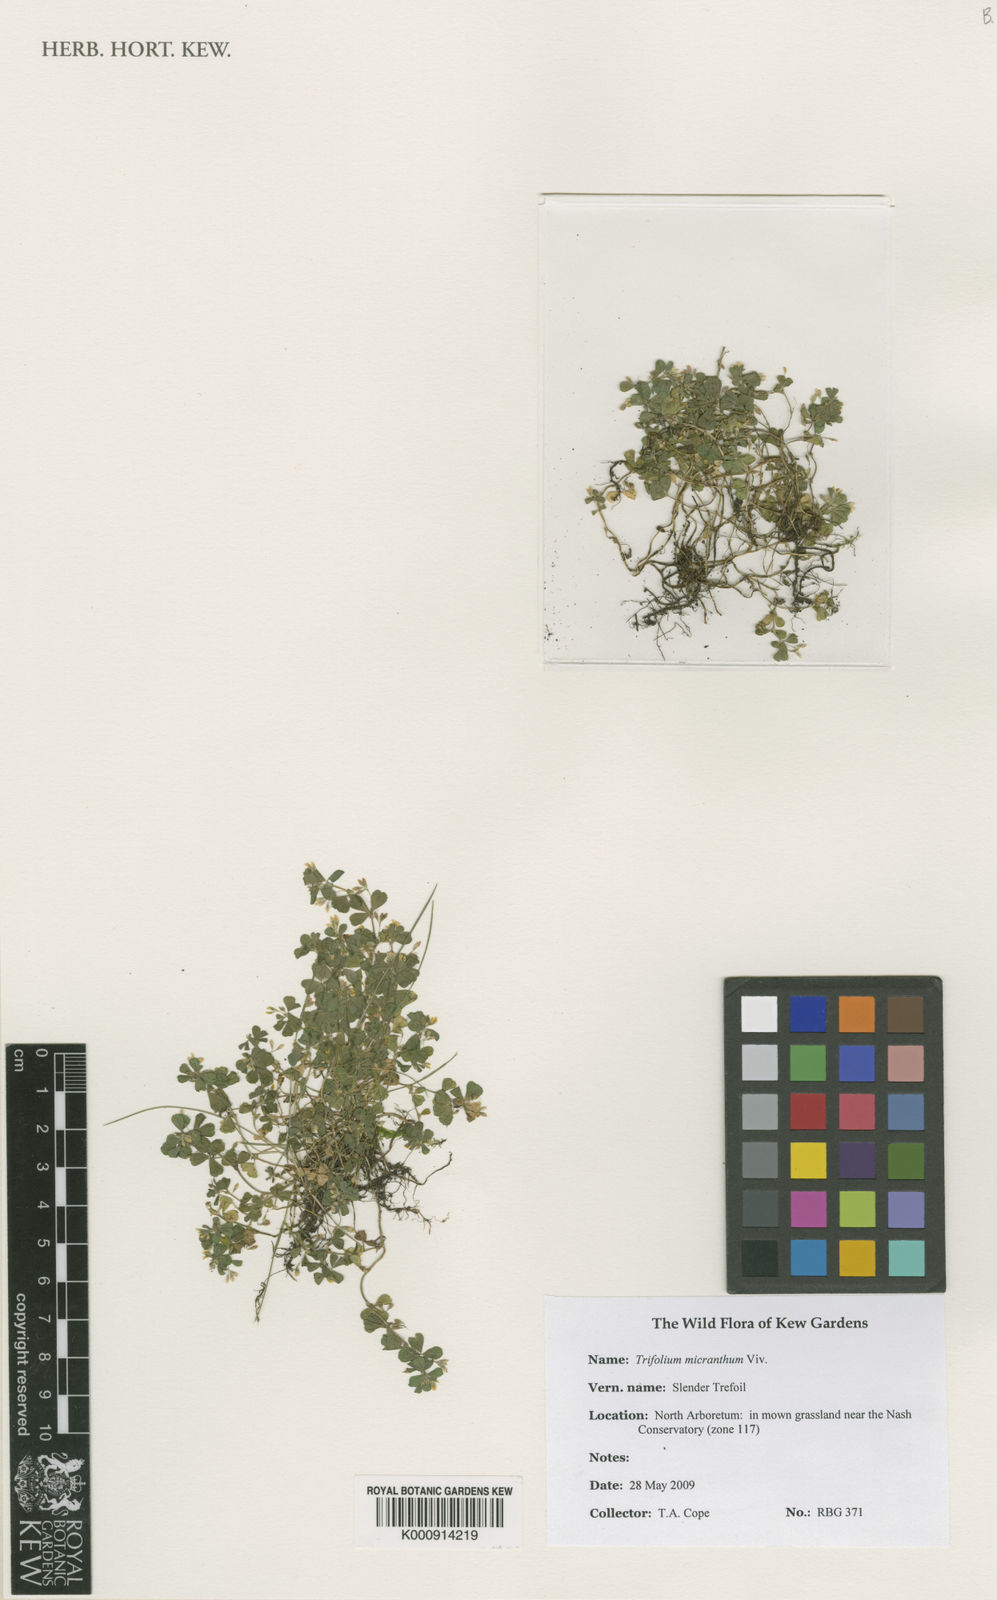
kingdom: Plantae
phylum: Tracheophyta
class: Magnoliopsida
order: Fabales
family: Fabaceae
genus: Trifolium
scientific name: Trifolium micranthum
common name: Slender trefoil
